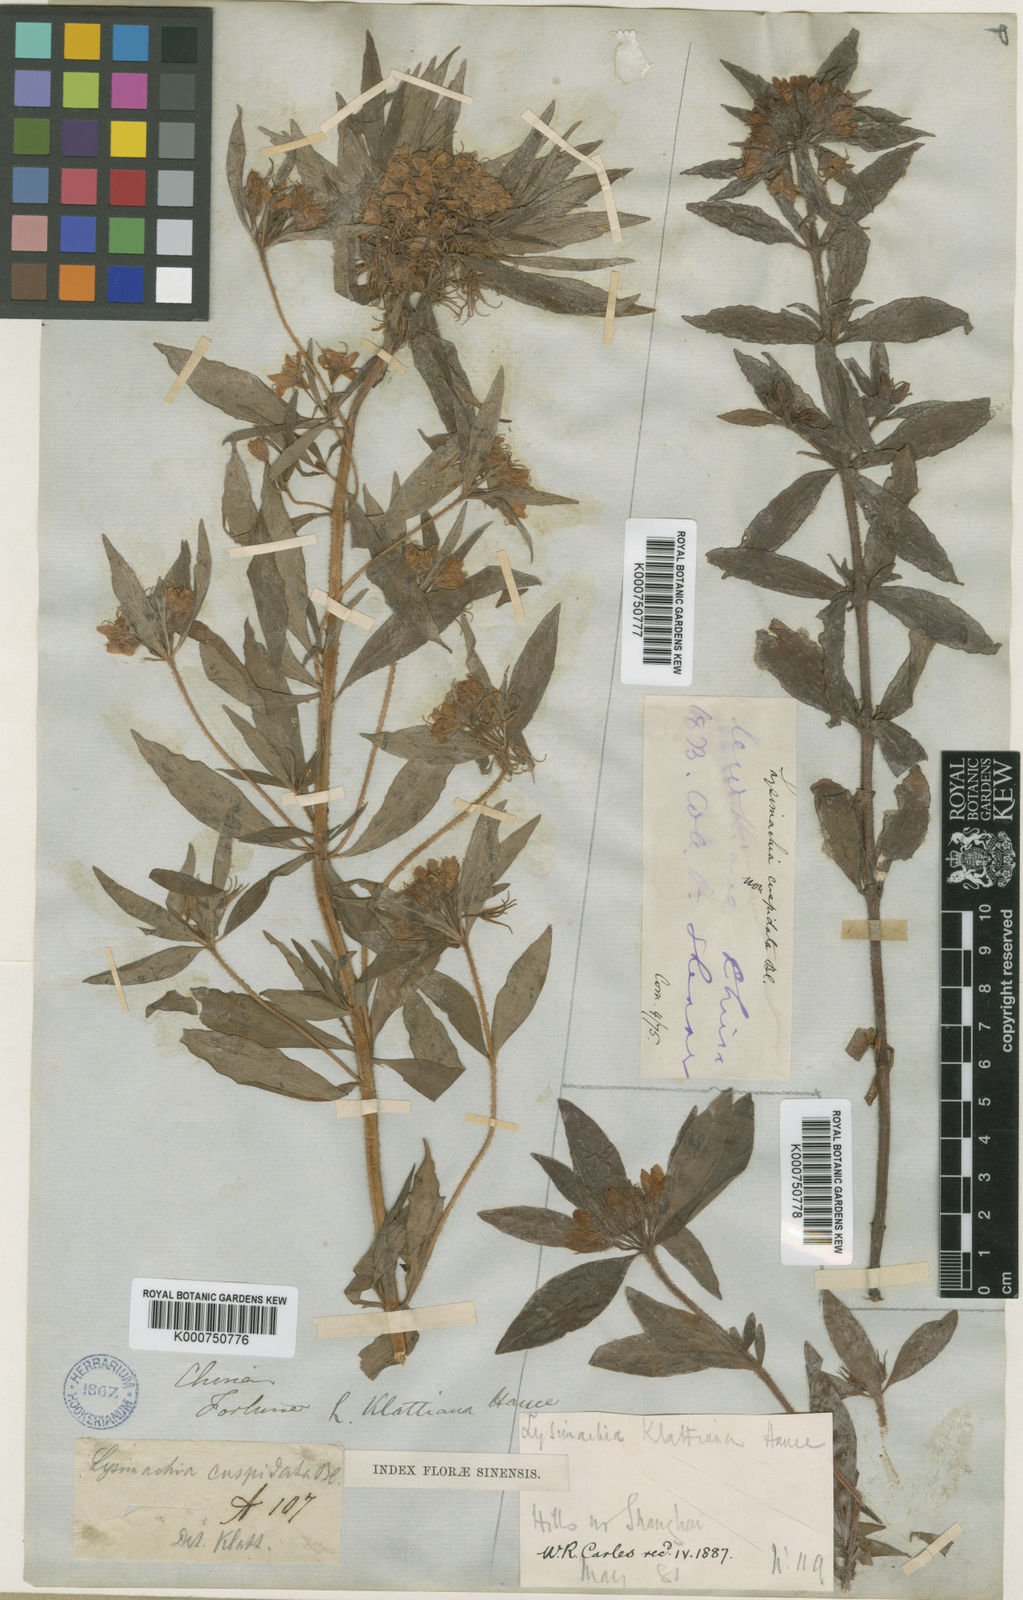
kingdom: Plantae
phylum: Tracheophyta
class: Magnoliopsida
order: Ericales
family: Primulaceae
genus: Lysimachia
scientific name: Lysimachia klattiana
